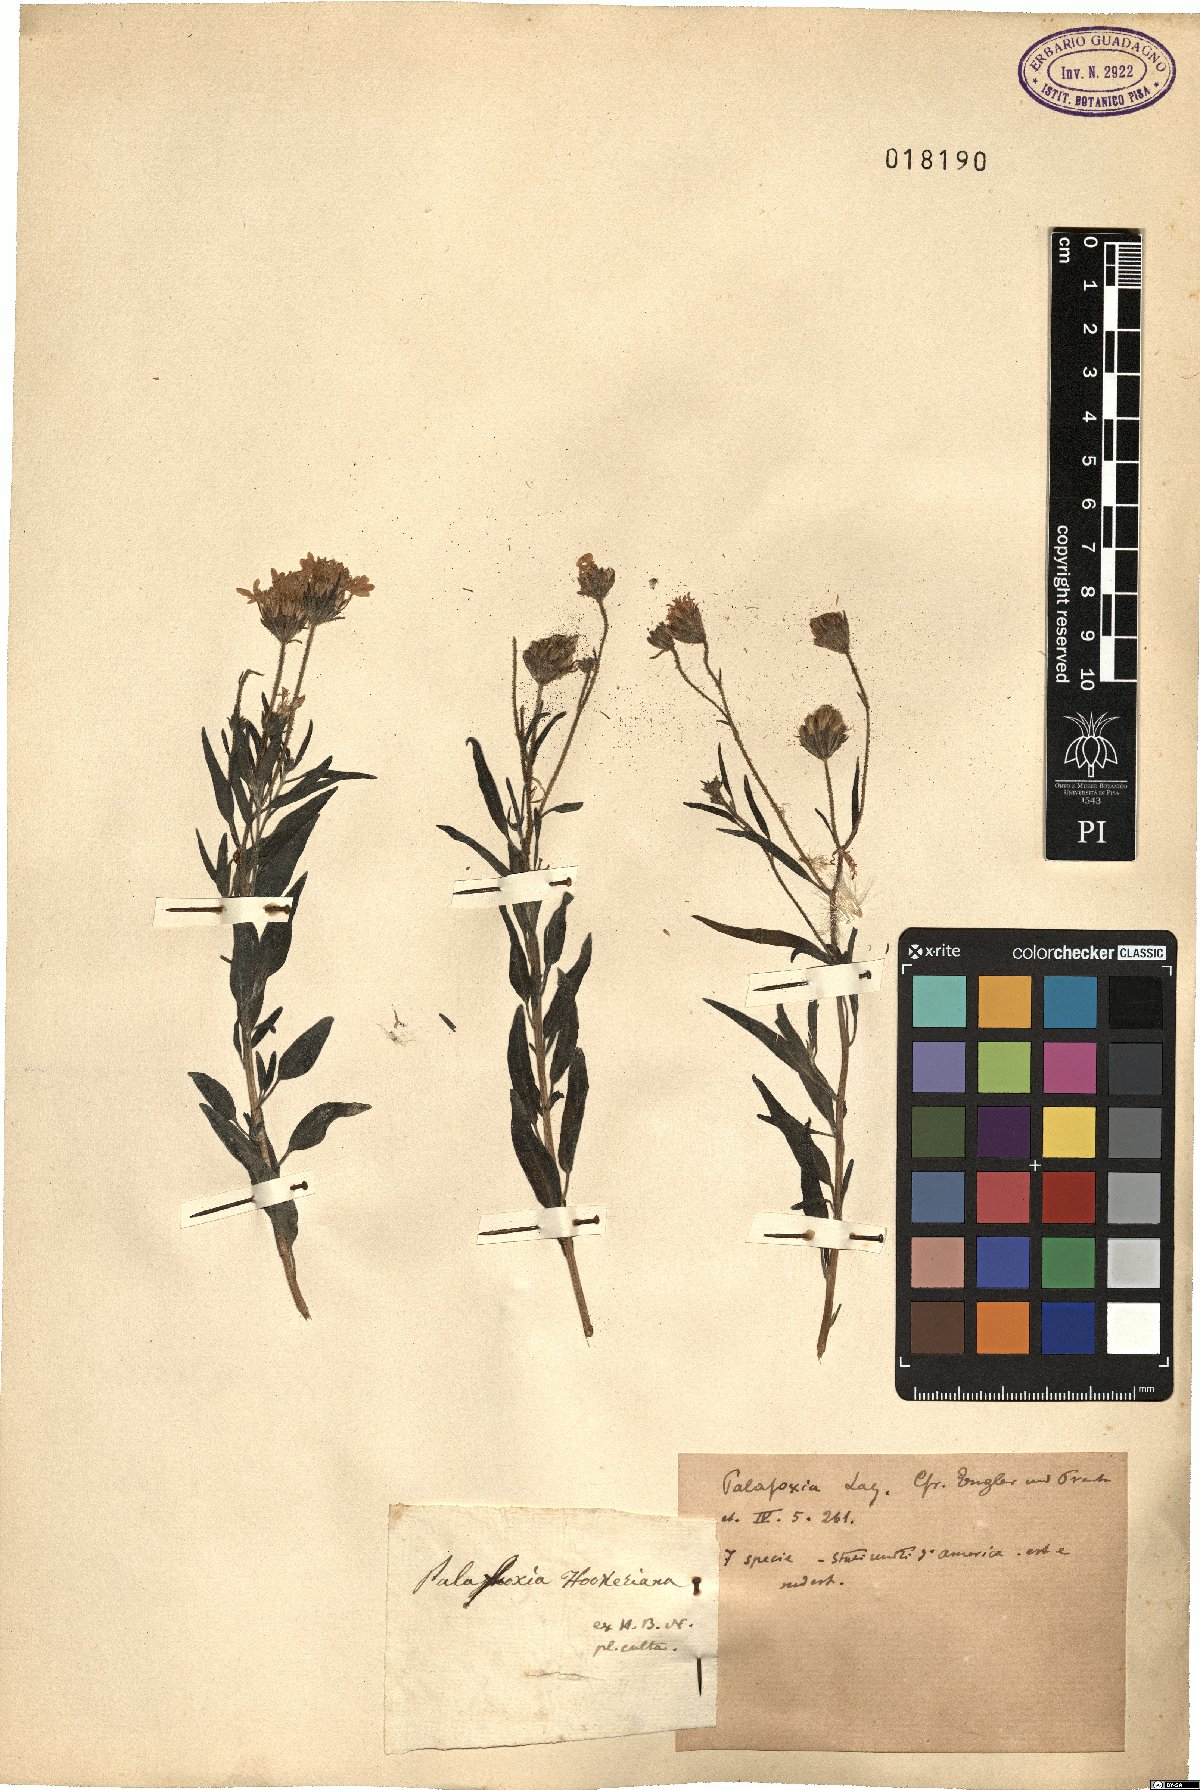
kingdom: Plantae
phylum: Tracheophyta
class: Magnoliopsida
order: Asterales
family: Asteraceae
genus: Palafoxia
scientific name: Palafoxia hookeriana
